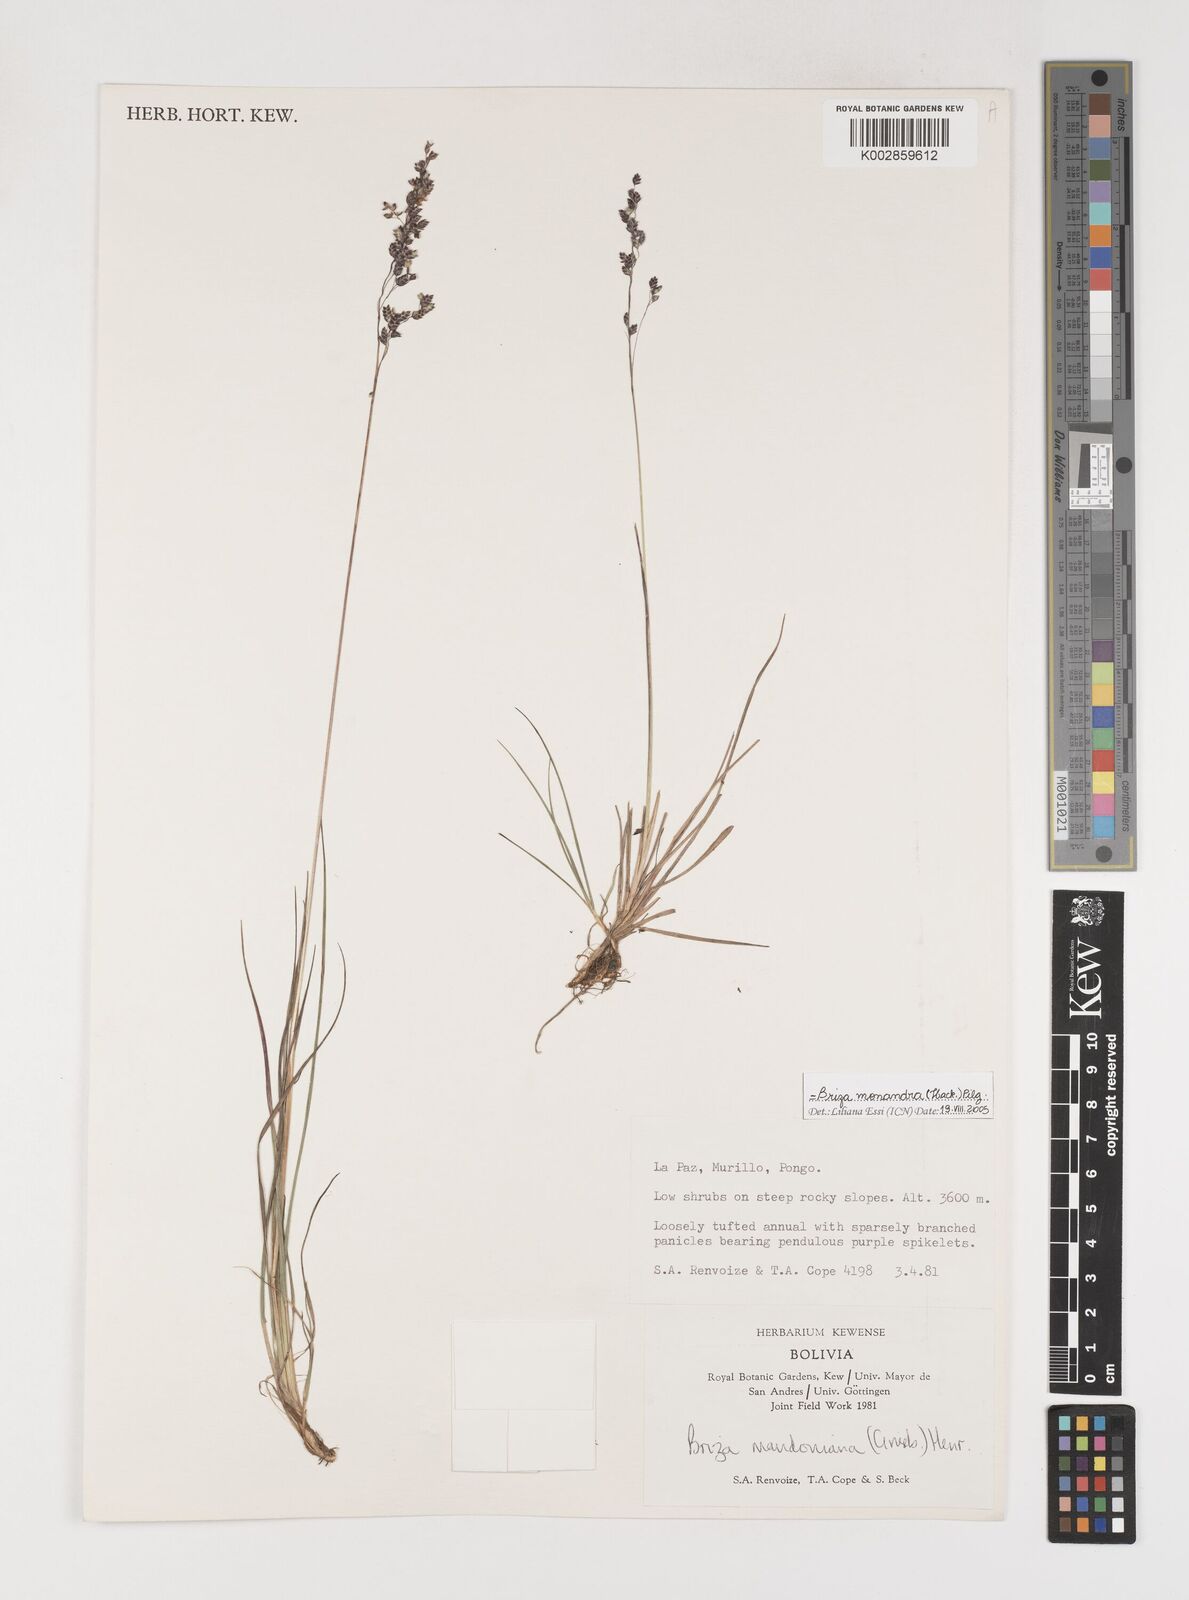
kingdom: Plantae
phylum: Tracheophyta
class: Liliopsida
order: Poales
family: Poaceae
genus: Poidium
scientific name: Poidium monandrum
